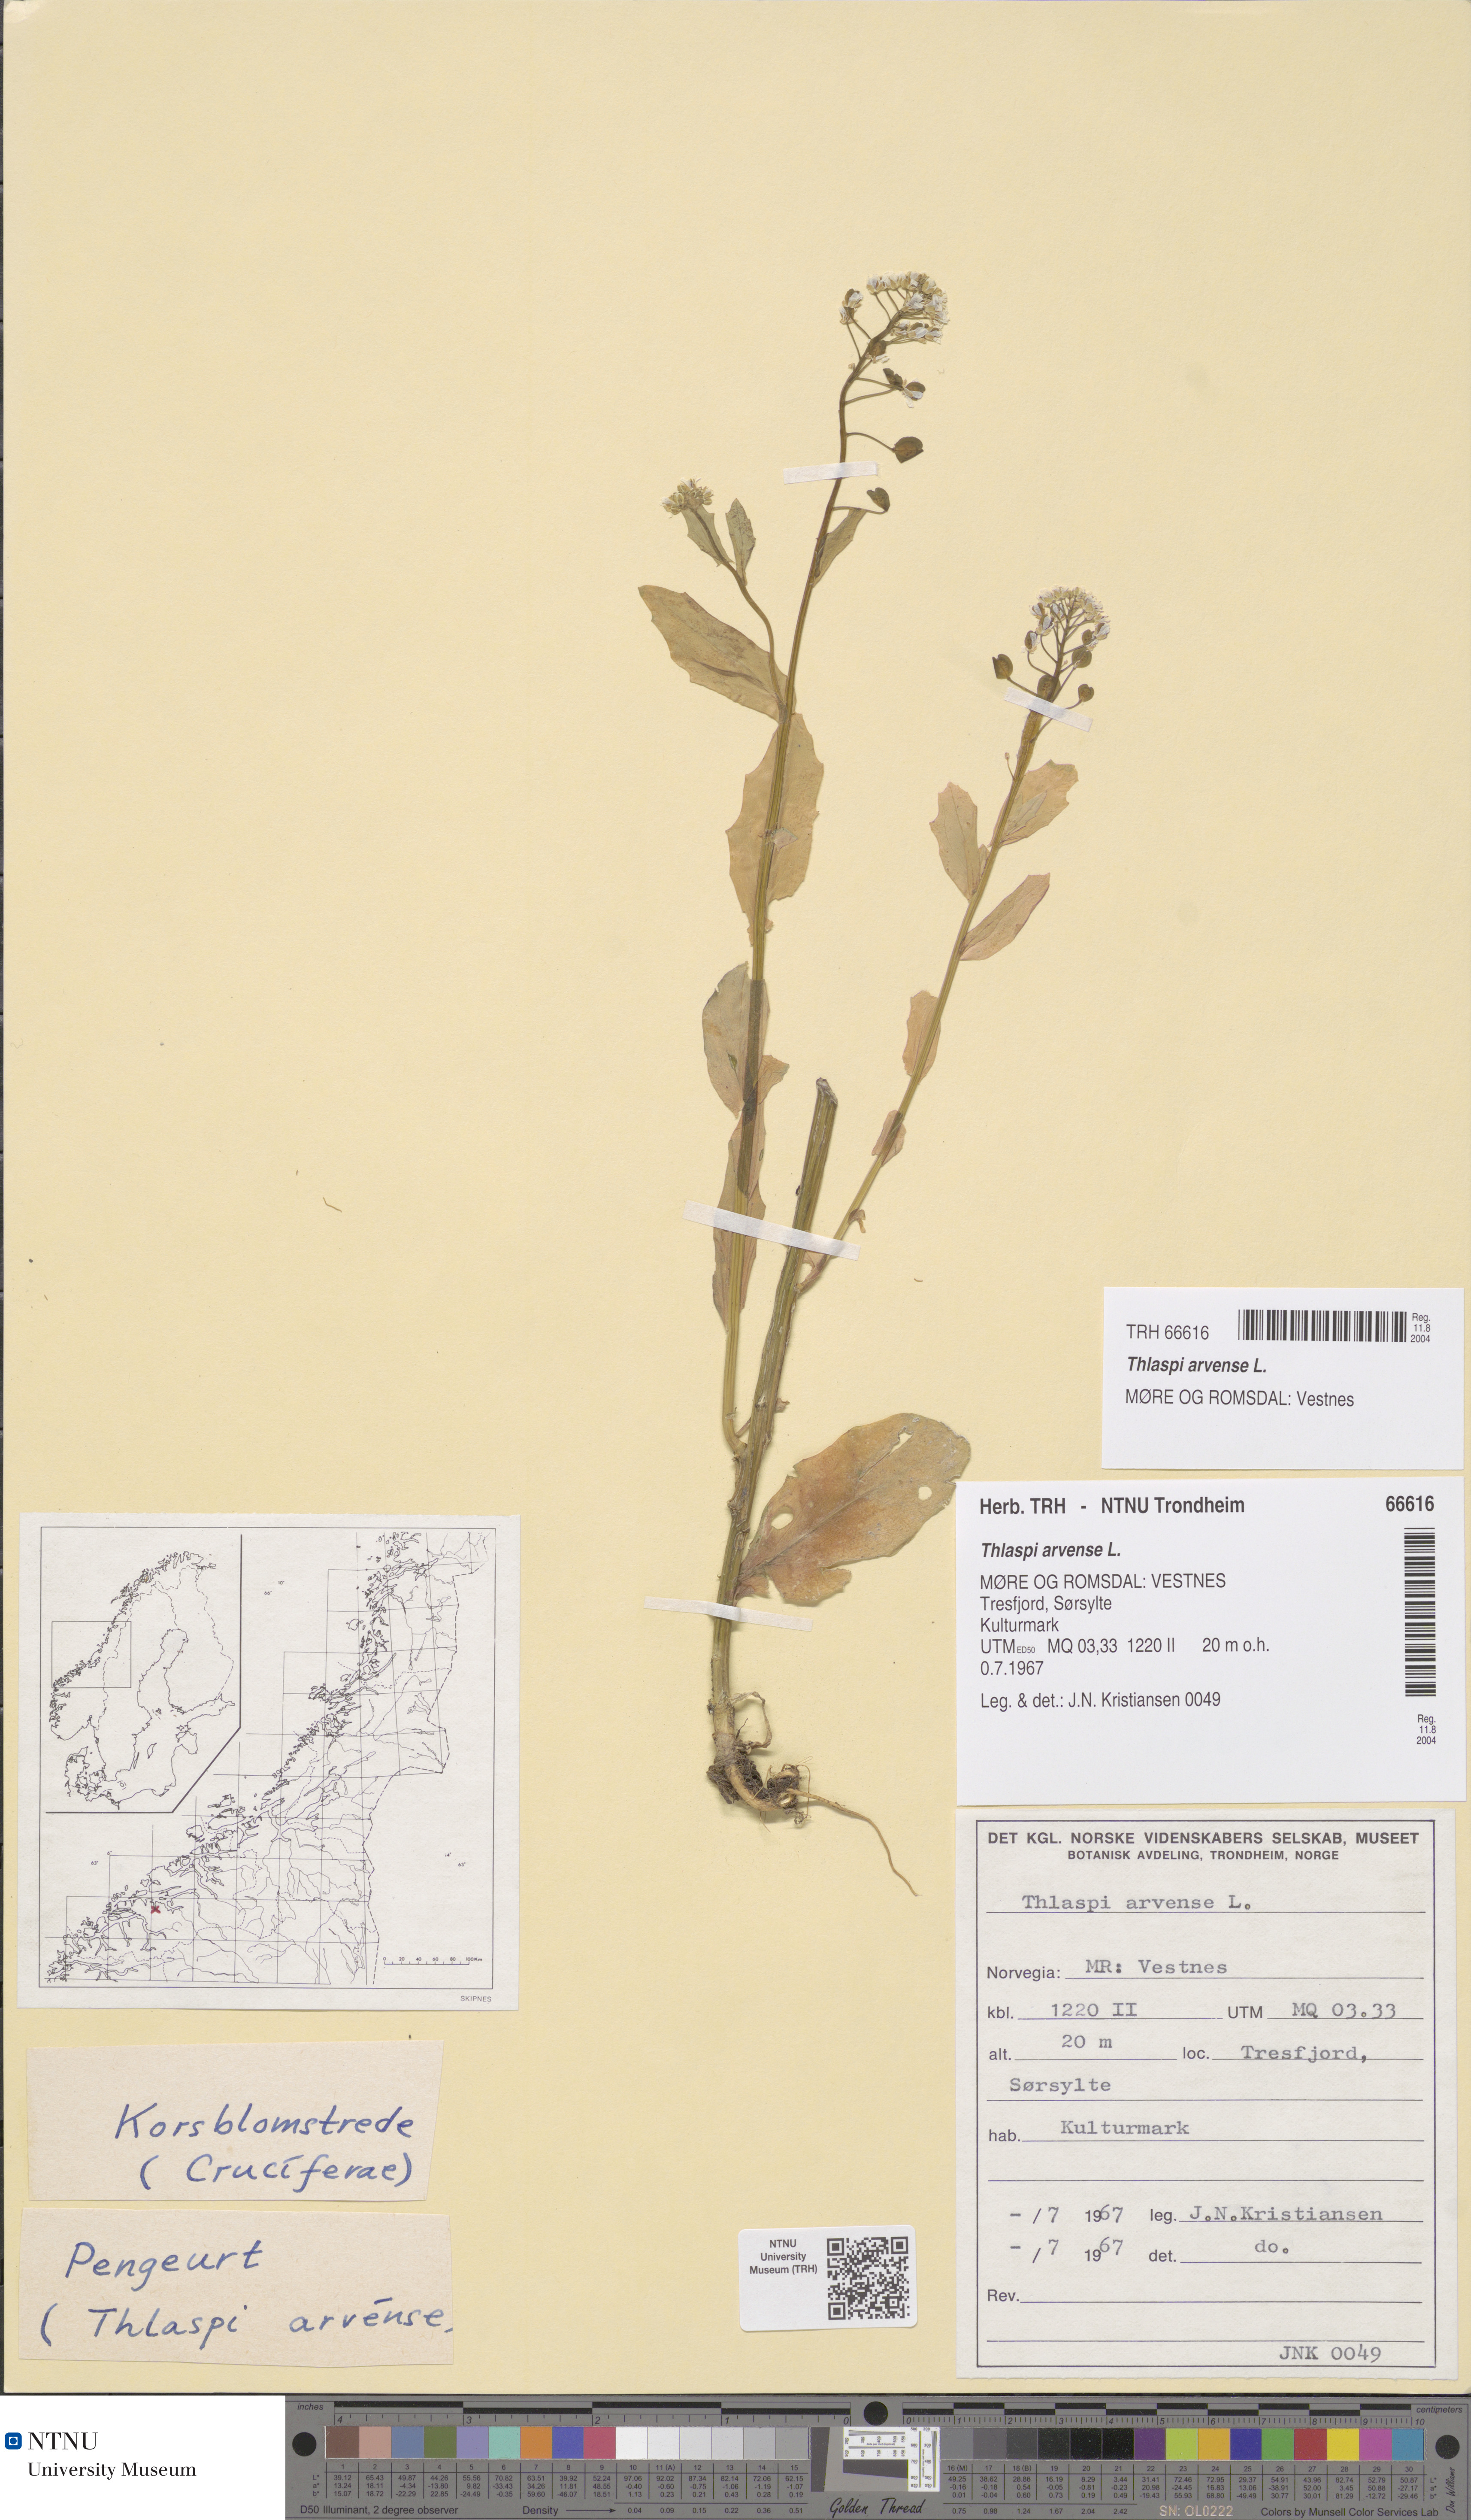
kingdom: Plantae
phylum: Tracheophyta
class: Magnoliopsida
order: Brassicales
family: Brassicaceae
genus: Thlaspi
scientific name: Thlaspi arvense
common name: Field pennycress
